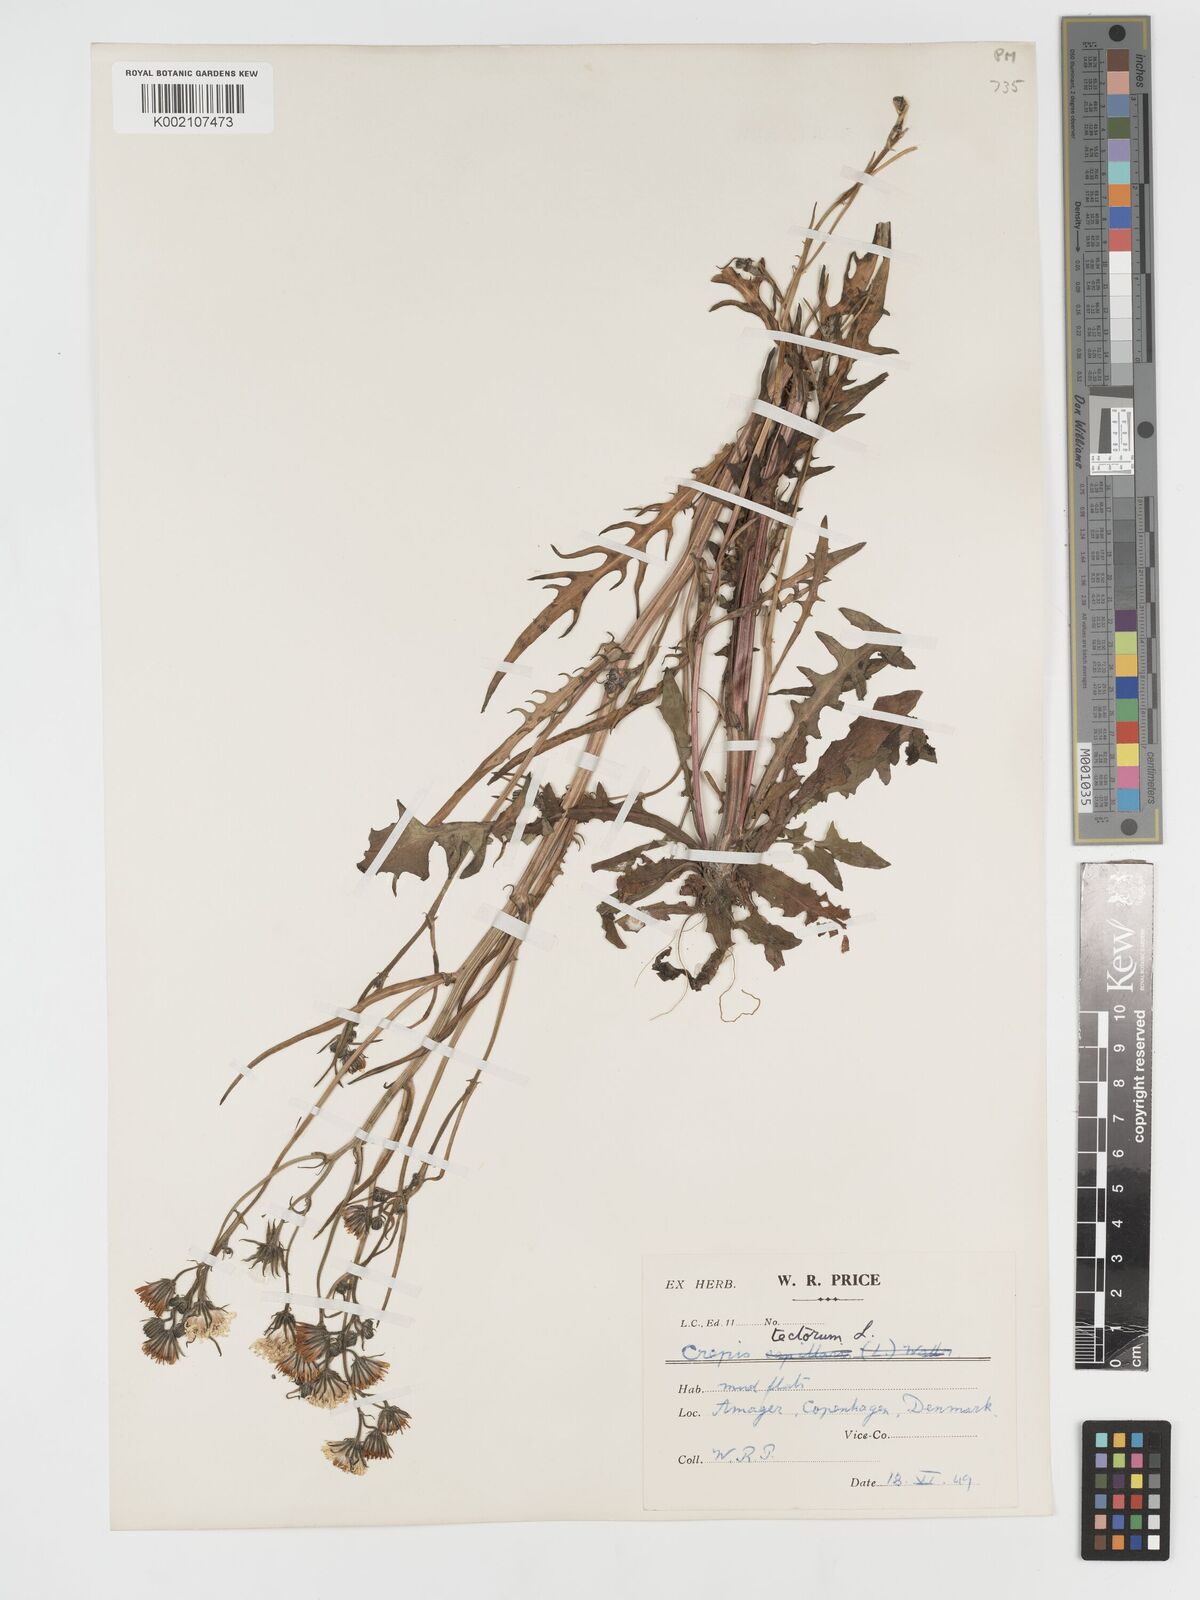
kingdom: Plantae
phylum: Tracheophyta
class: Magnoliopsida
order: Asterales
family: Asteraceae
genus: Crepis
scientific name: Crepis tectorum
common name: Narrow-leaved hawk's-beard
